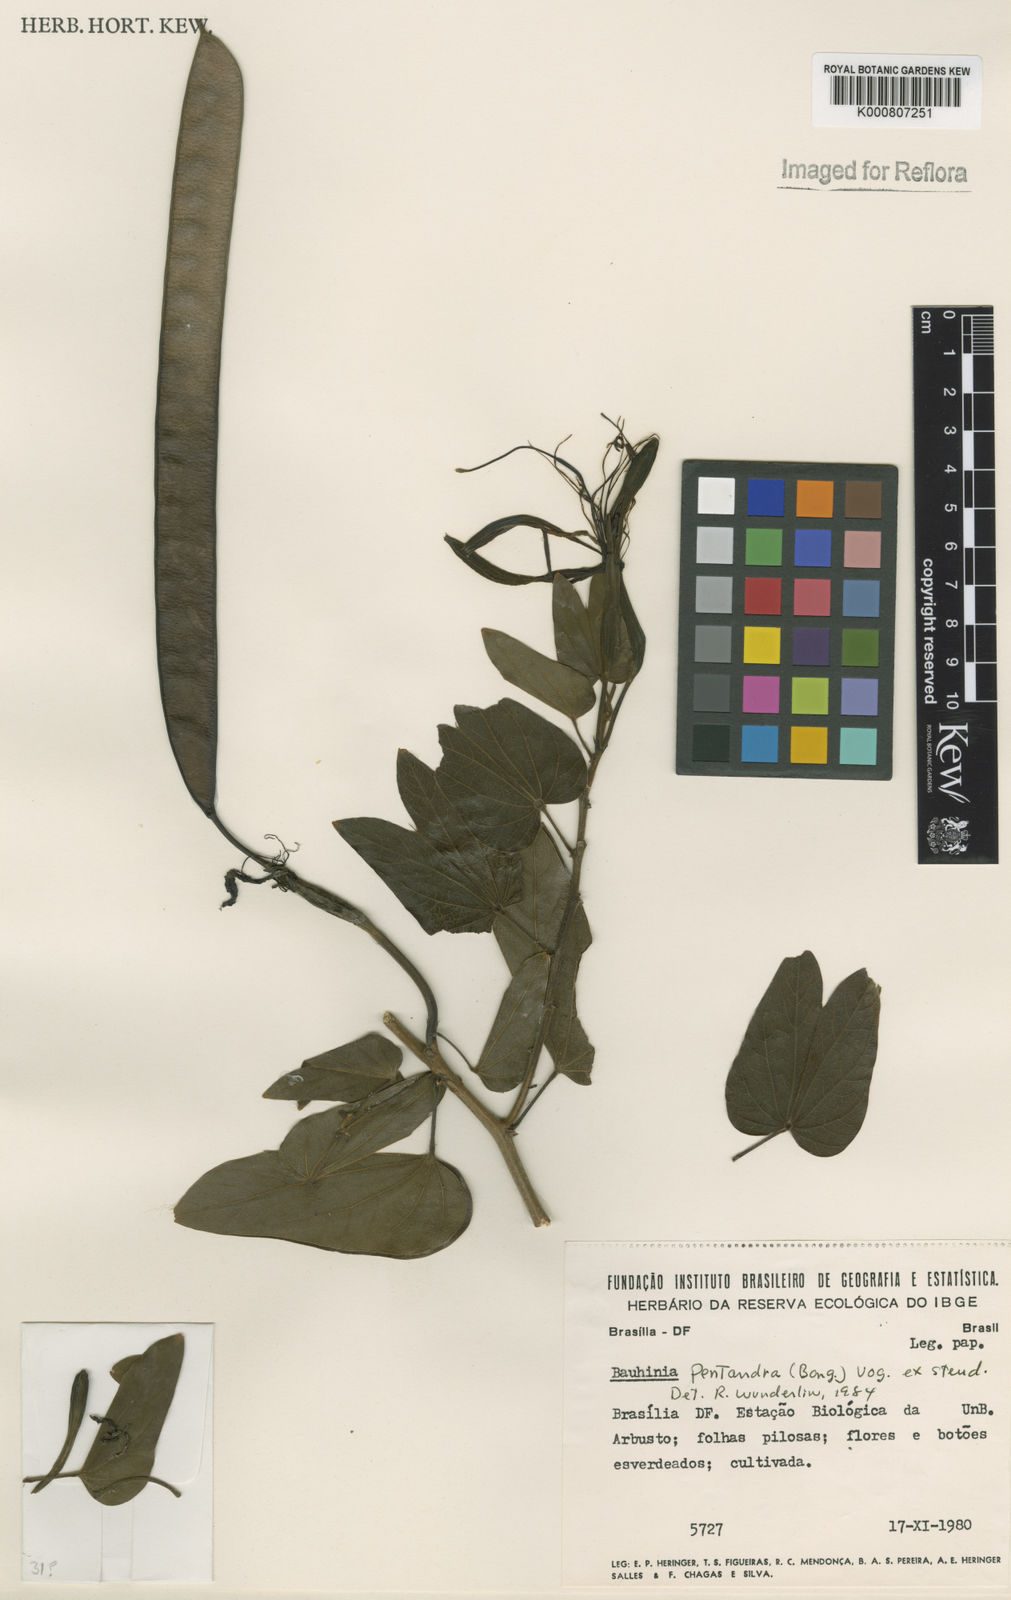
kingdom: Plantae
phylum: Tracheophyta
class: Magnoliopsida
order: Fabales
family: Fabaceae
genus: Bauhinia
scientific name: Bauhinia
